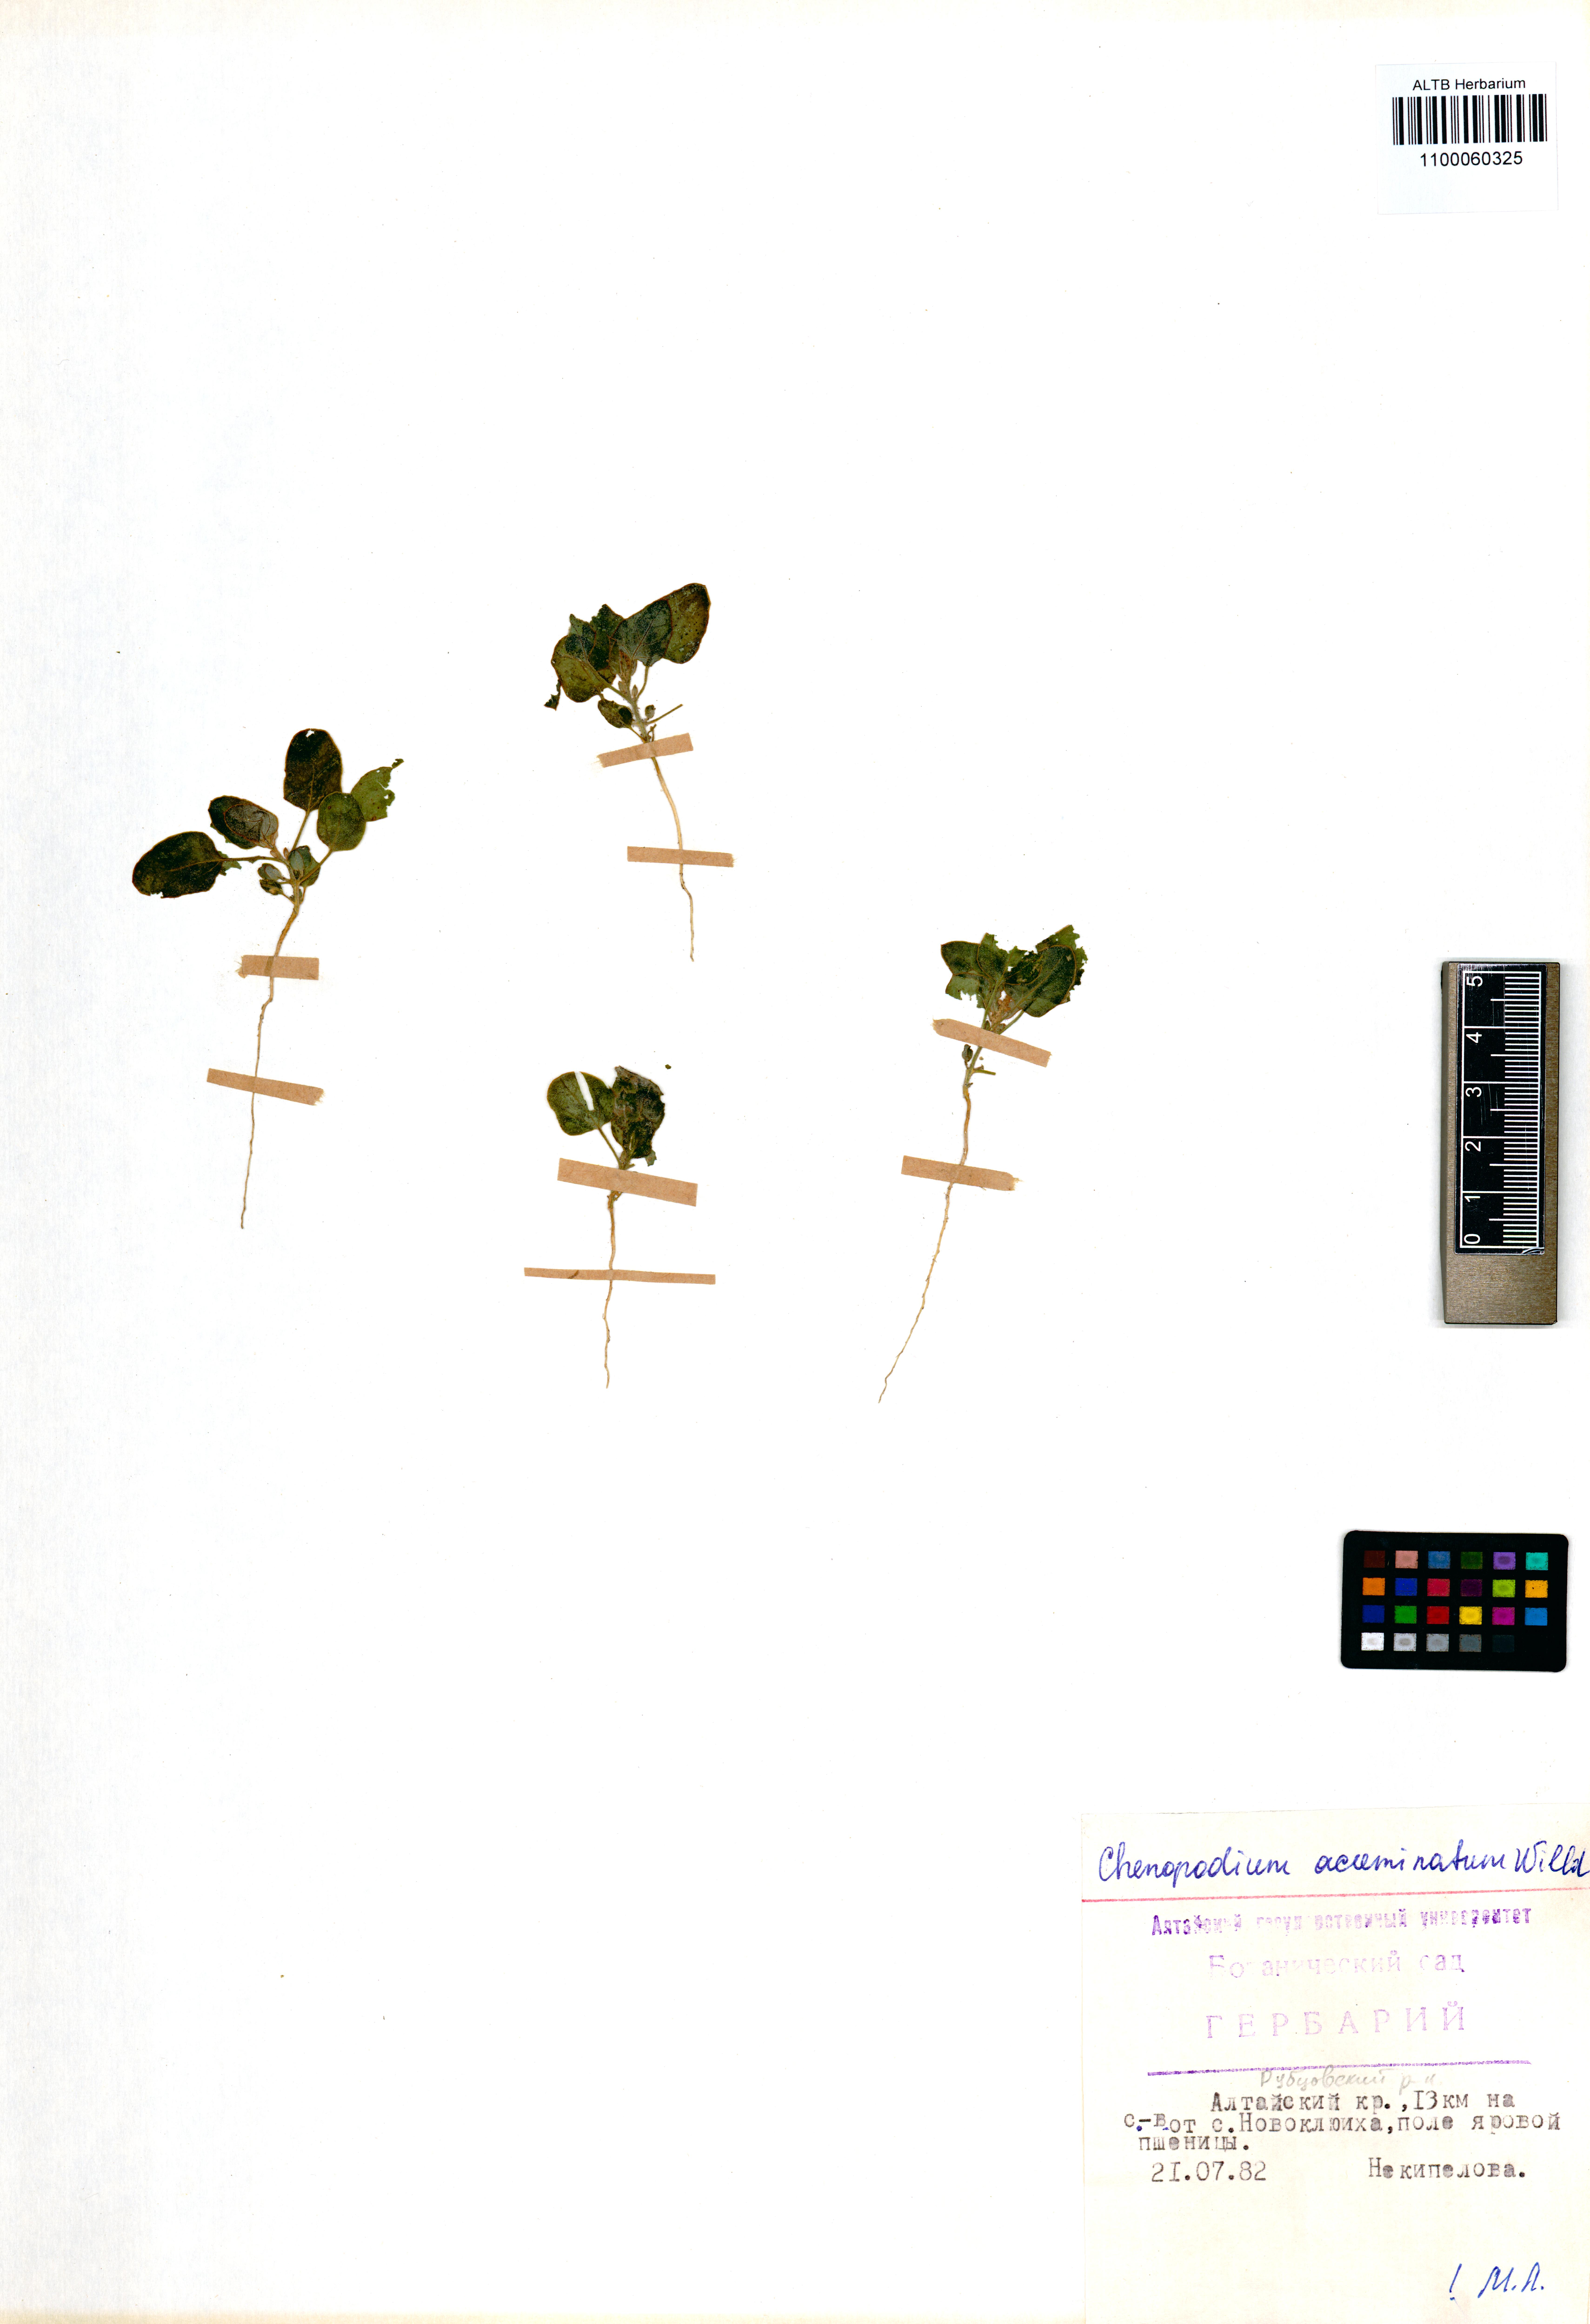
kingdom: Plantae
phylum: Tracheophyta
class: Magnoliopsida
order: Caryophyllales
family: Amaranthaceae
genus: Chenopodium
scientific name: Chenopodium acuminatum
